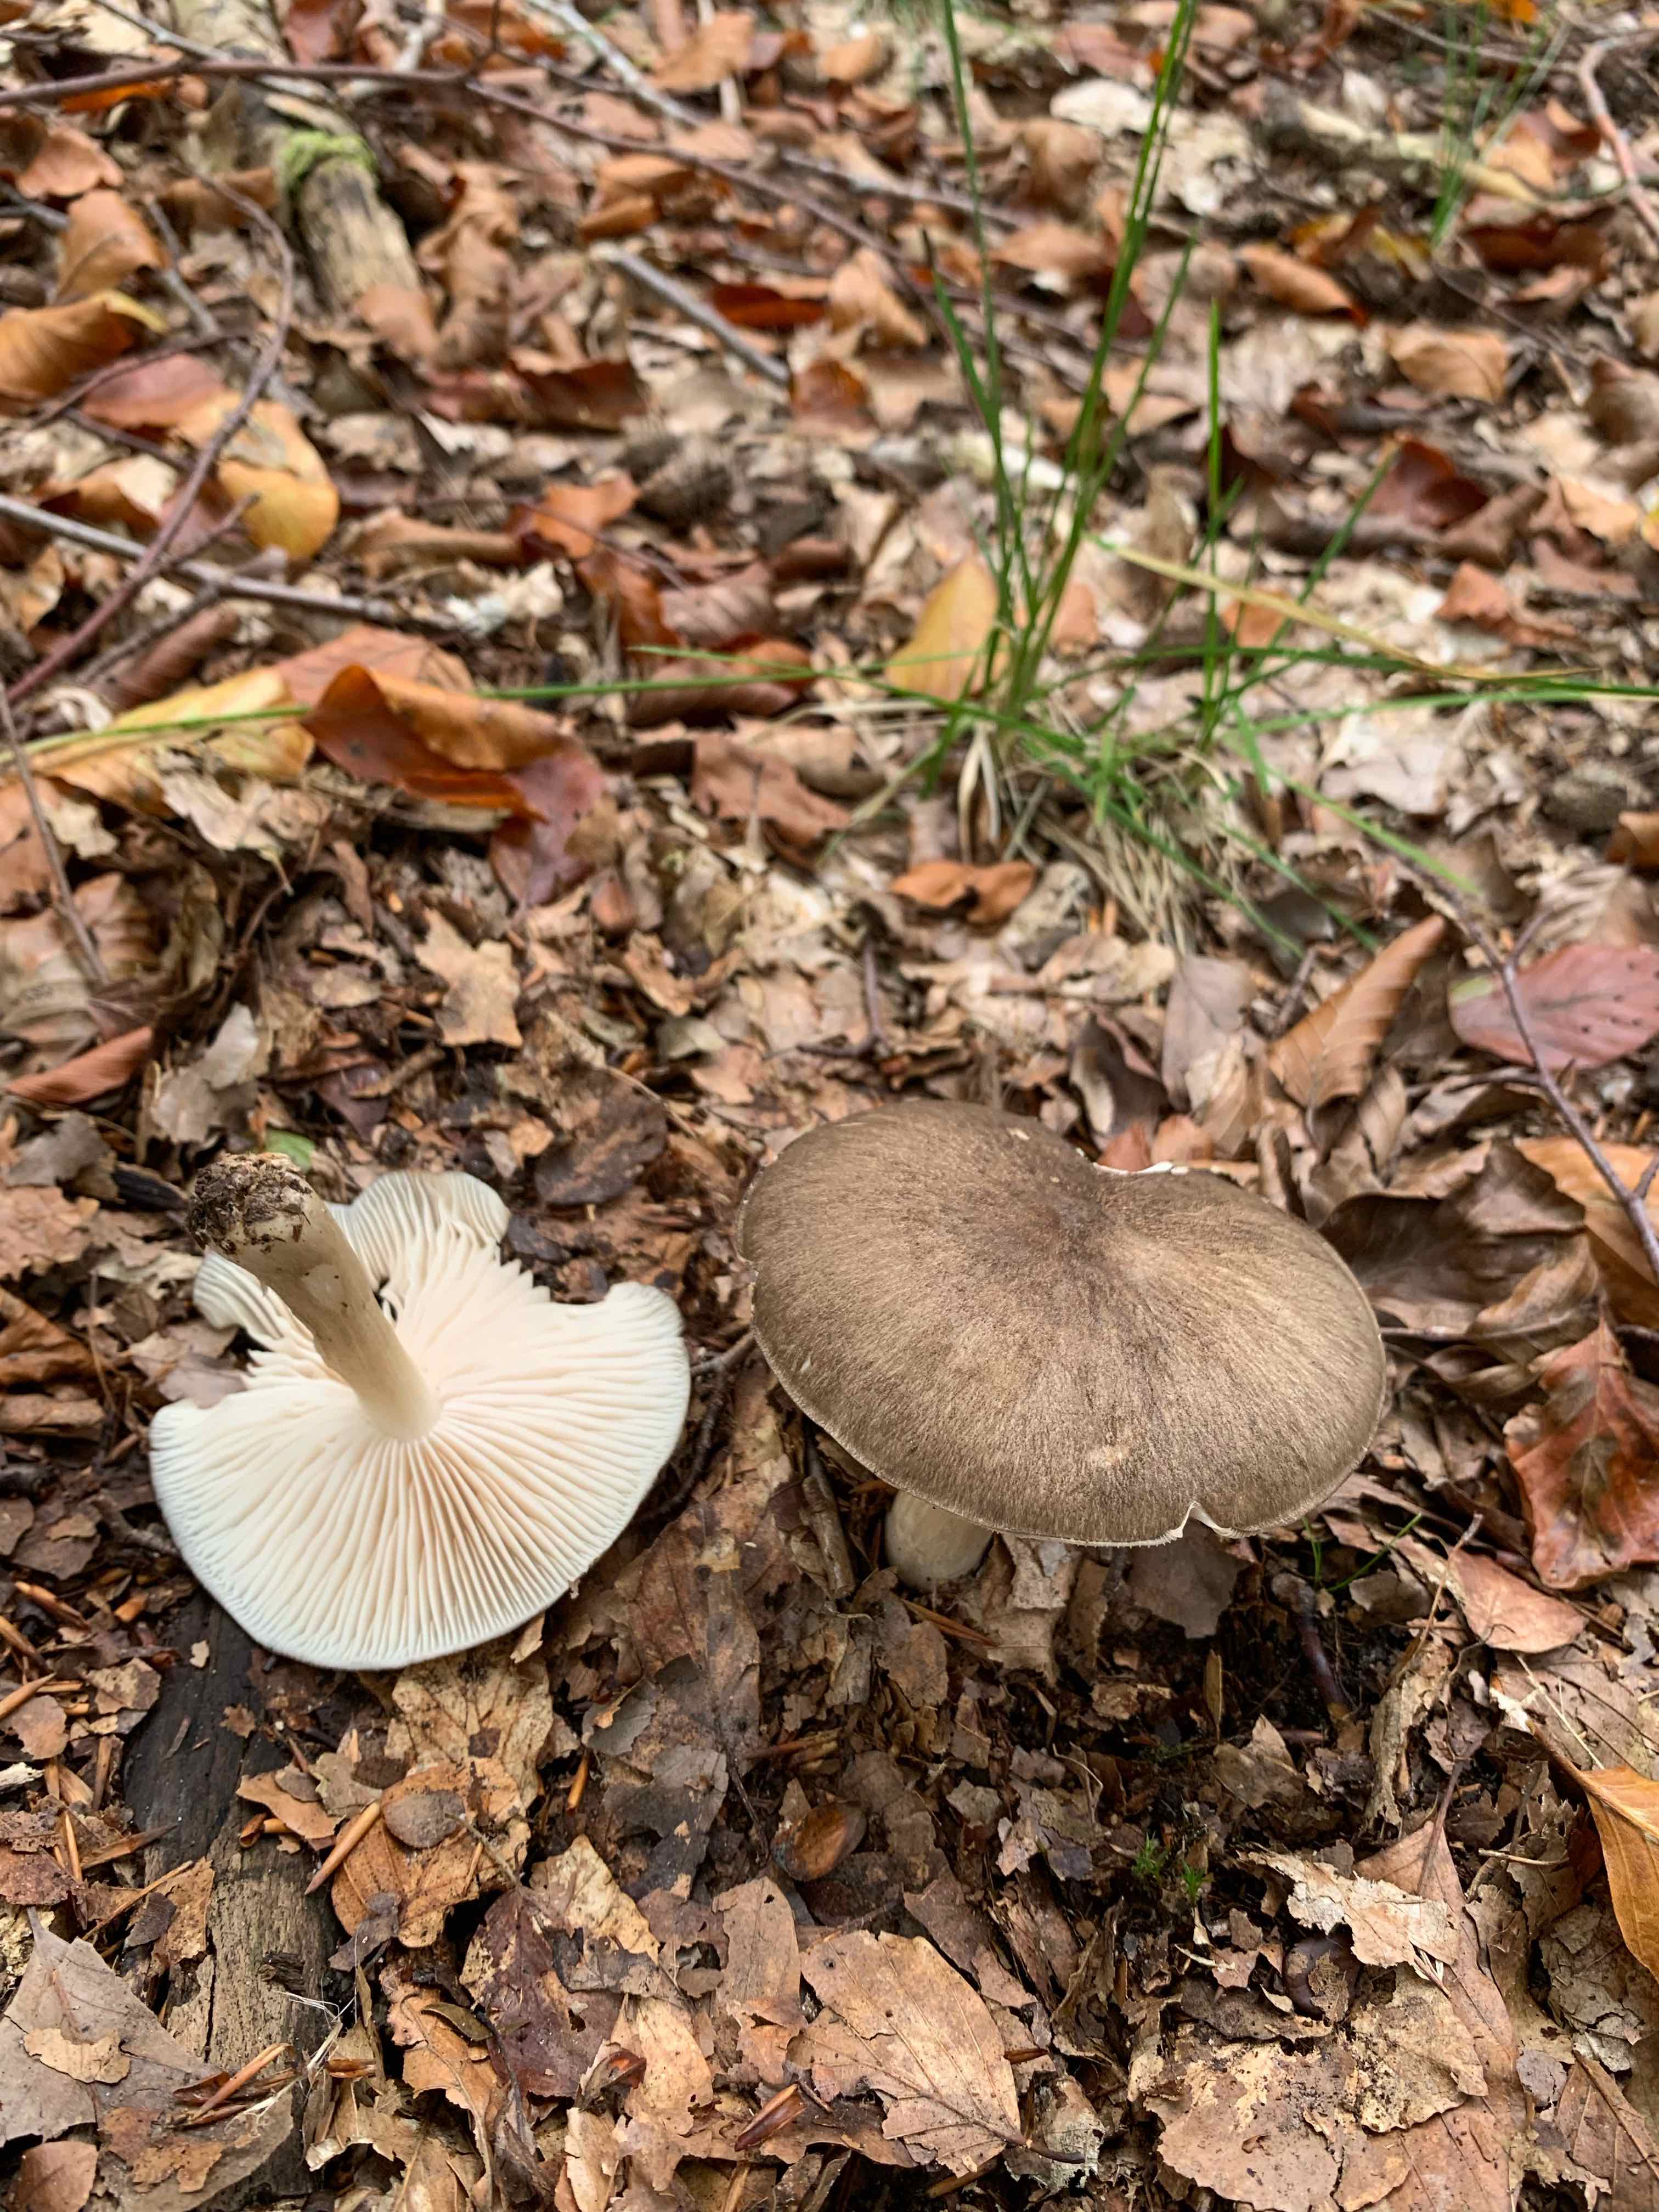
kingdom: Fungi
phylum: Basidiomycota
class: Agaricomycetes
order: Agaricales
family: Tricholomataceae
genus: Megacollybia
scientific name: Megacollybia platyphylla
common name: bredbladet væbnerhat
